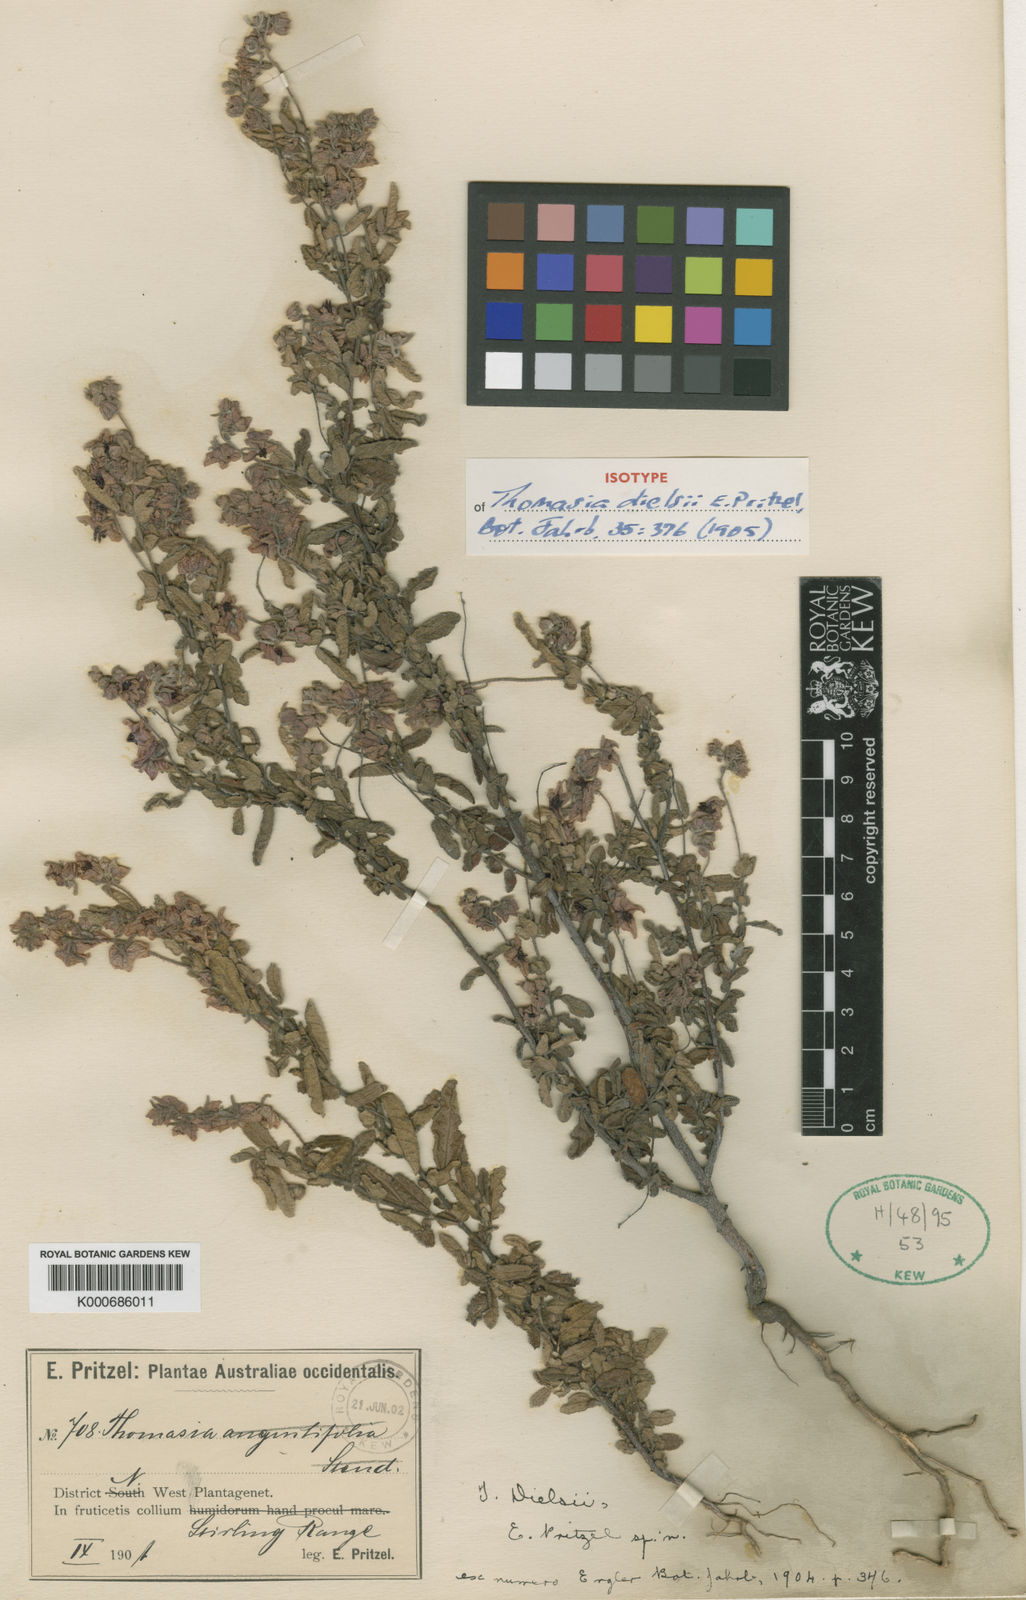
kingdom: Plantae
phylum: Tracheophyta
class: Magnoliopsida
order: Malvales
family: Malvaceae
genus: Thomasia
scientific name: Thomasia dielsii
